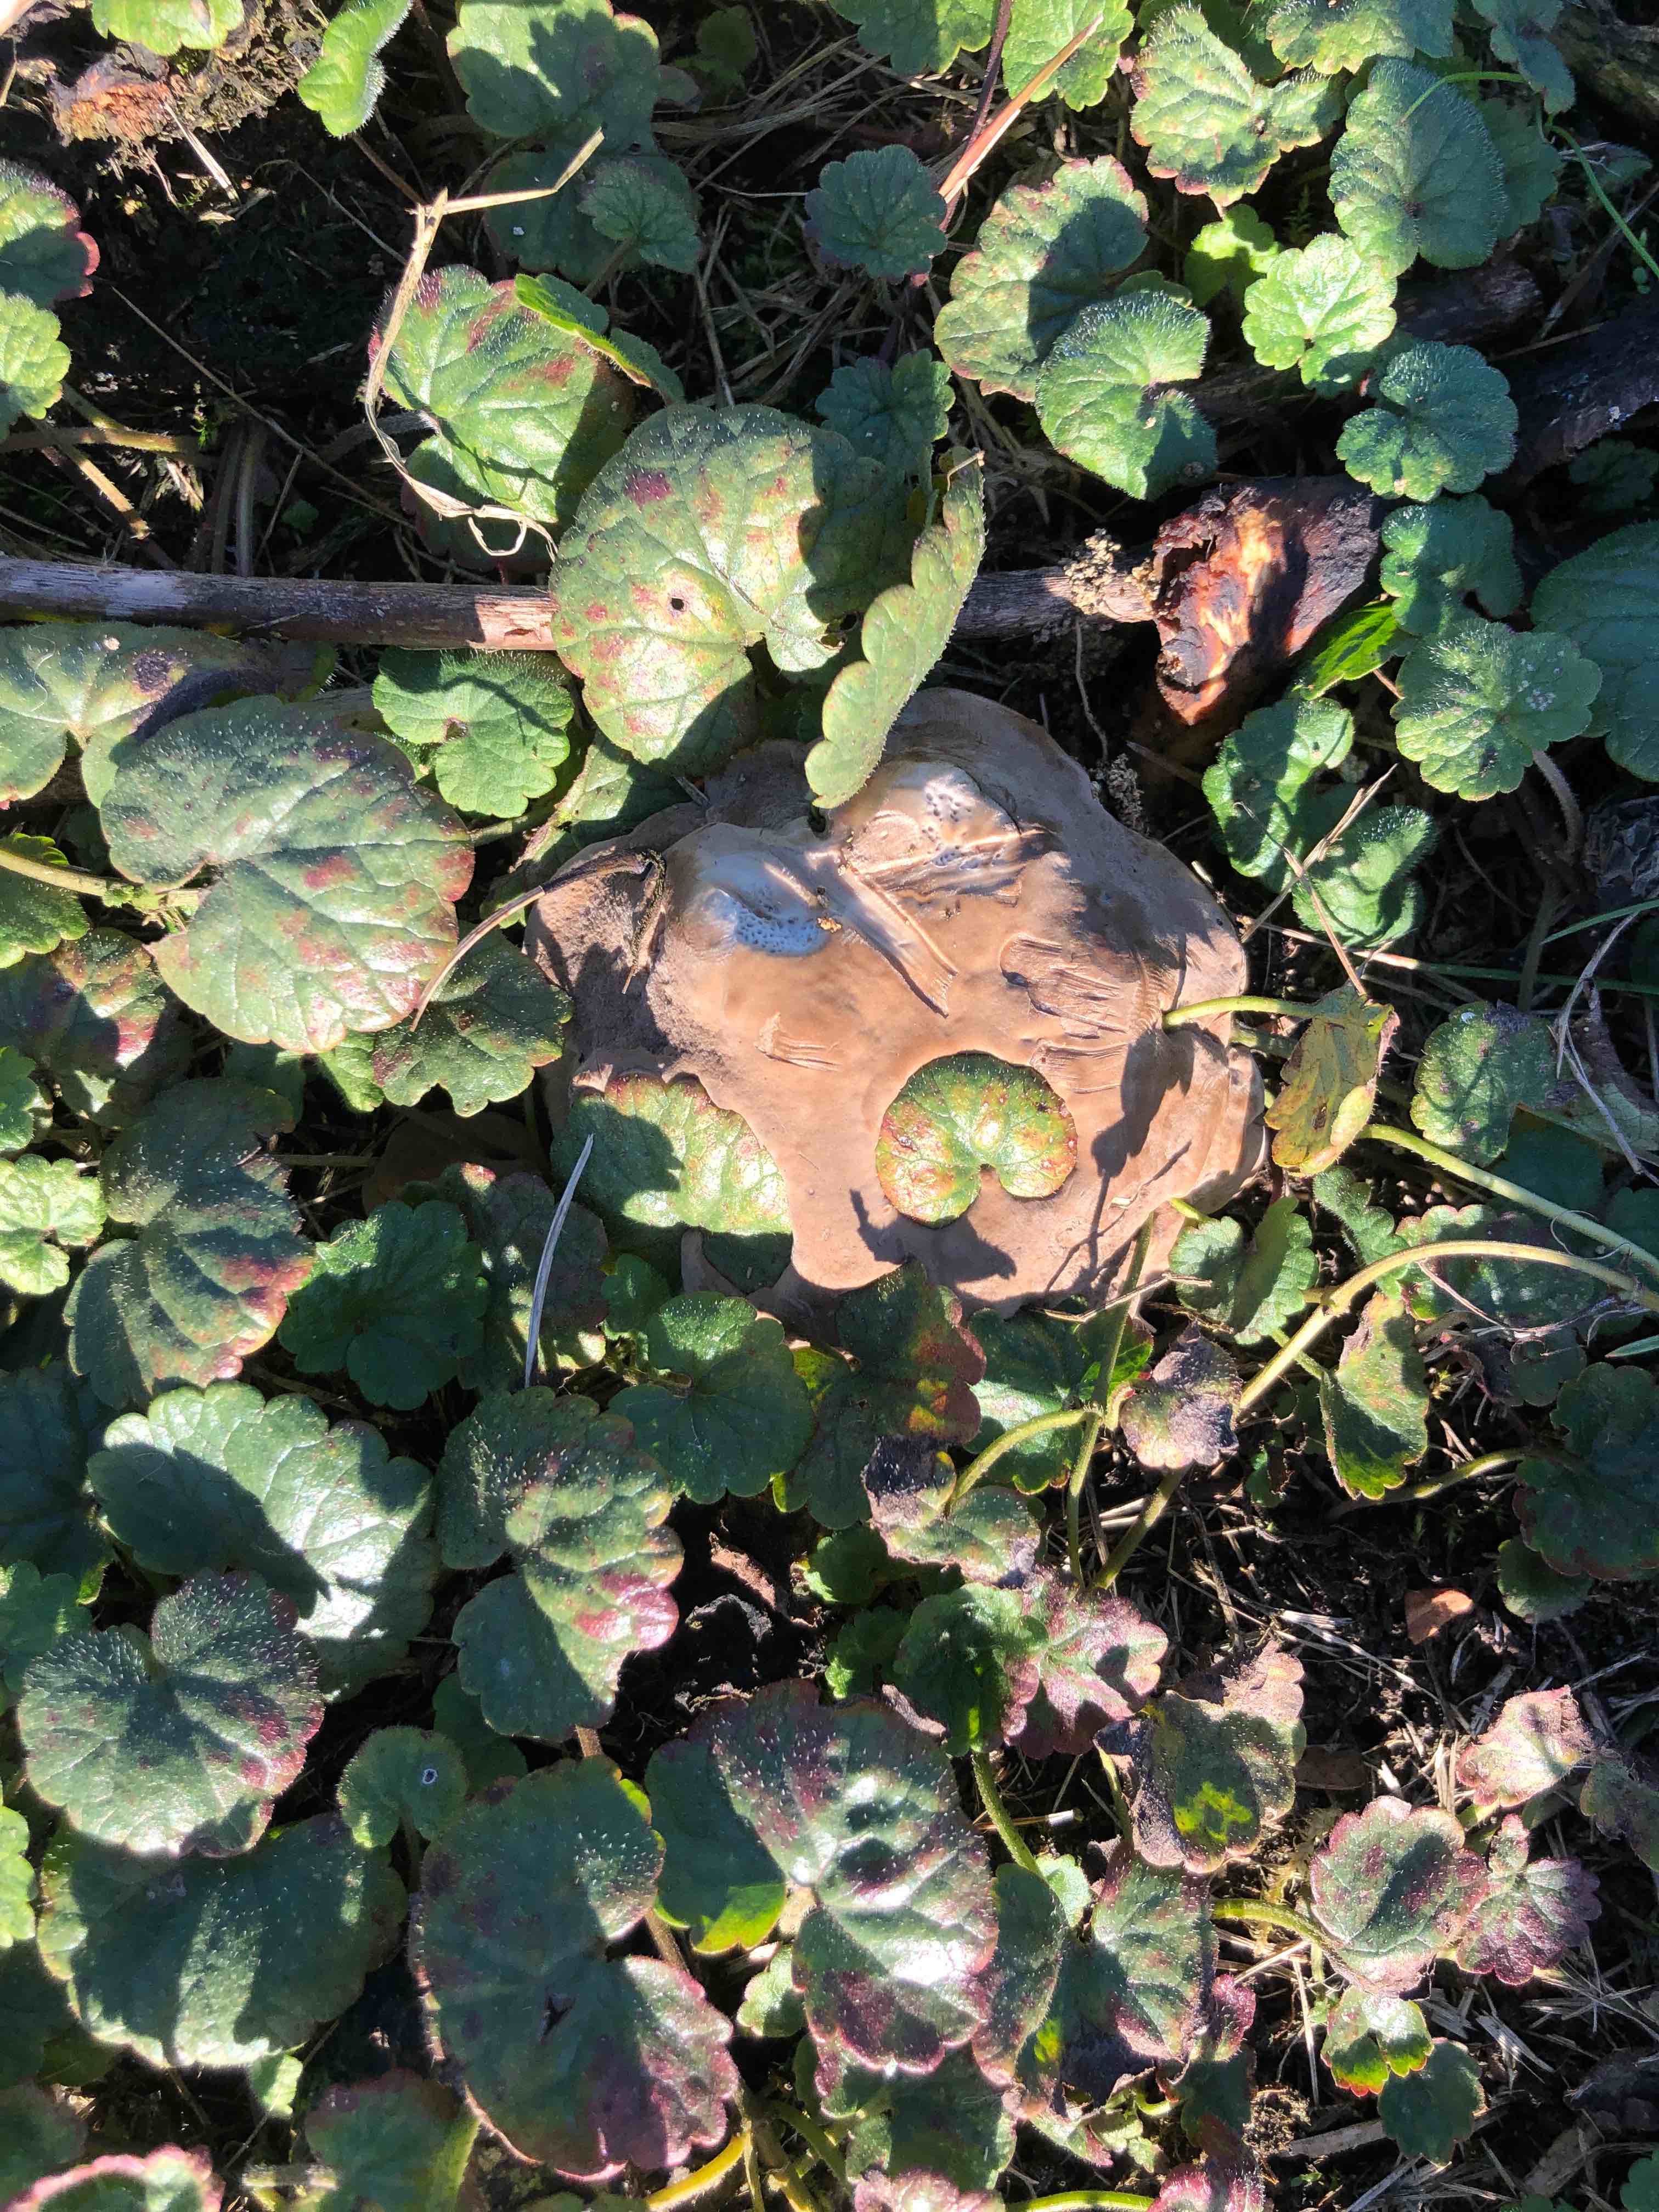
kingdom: Fungi
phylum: Basidiomycota
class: Agaricomycetes
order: Polyporales
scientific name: Polyporales
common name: poresvampordenen
